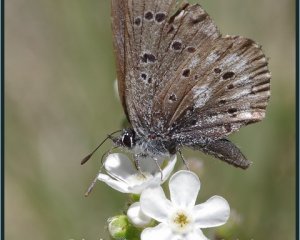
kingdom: Animalia
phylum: Arthropoda
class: Insecta
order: Lepidoptera
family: Lycaenidae
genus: Glaucopsyche
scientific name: Glaucopsyche piasus
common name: Arrowhead Blue
